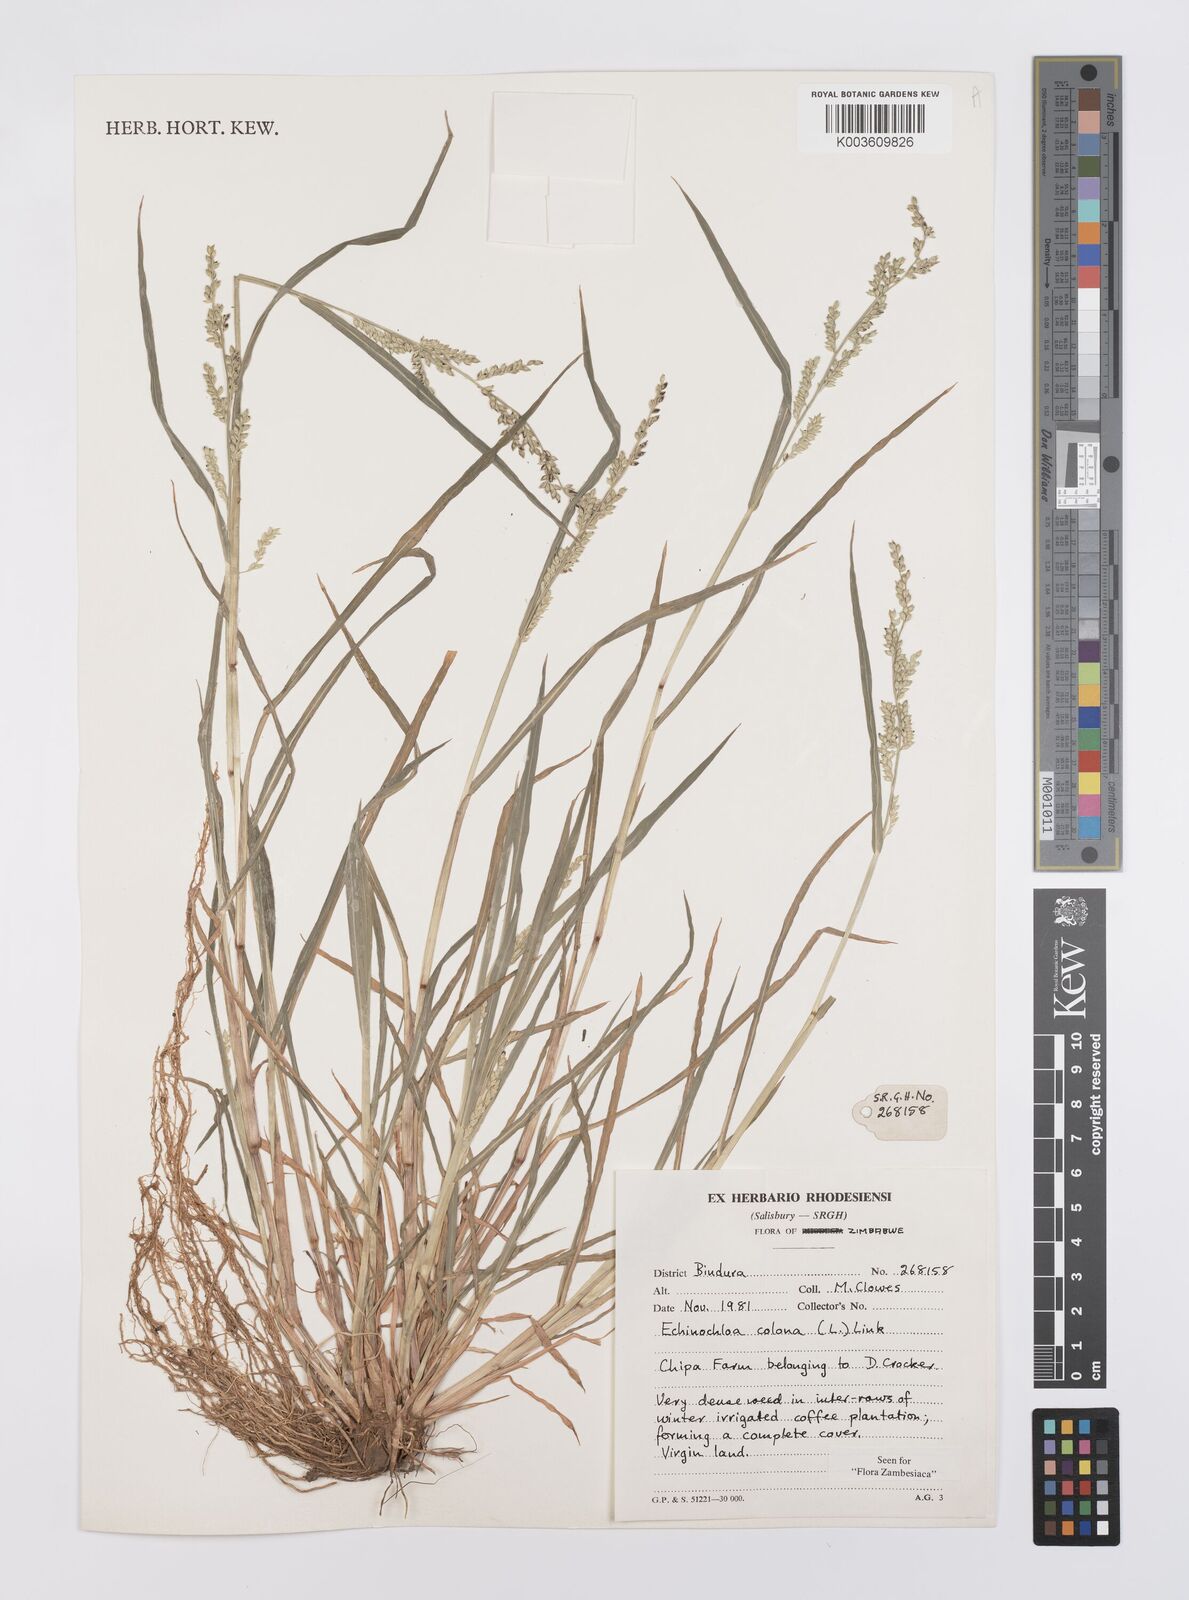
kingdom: Plantae
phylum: Tracheophyta
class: Liliopsida
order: Poales
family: Poaceae
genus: Echinochloa
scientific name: Echinochloa colonum
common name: Jungle rice
